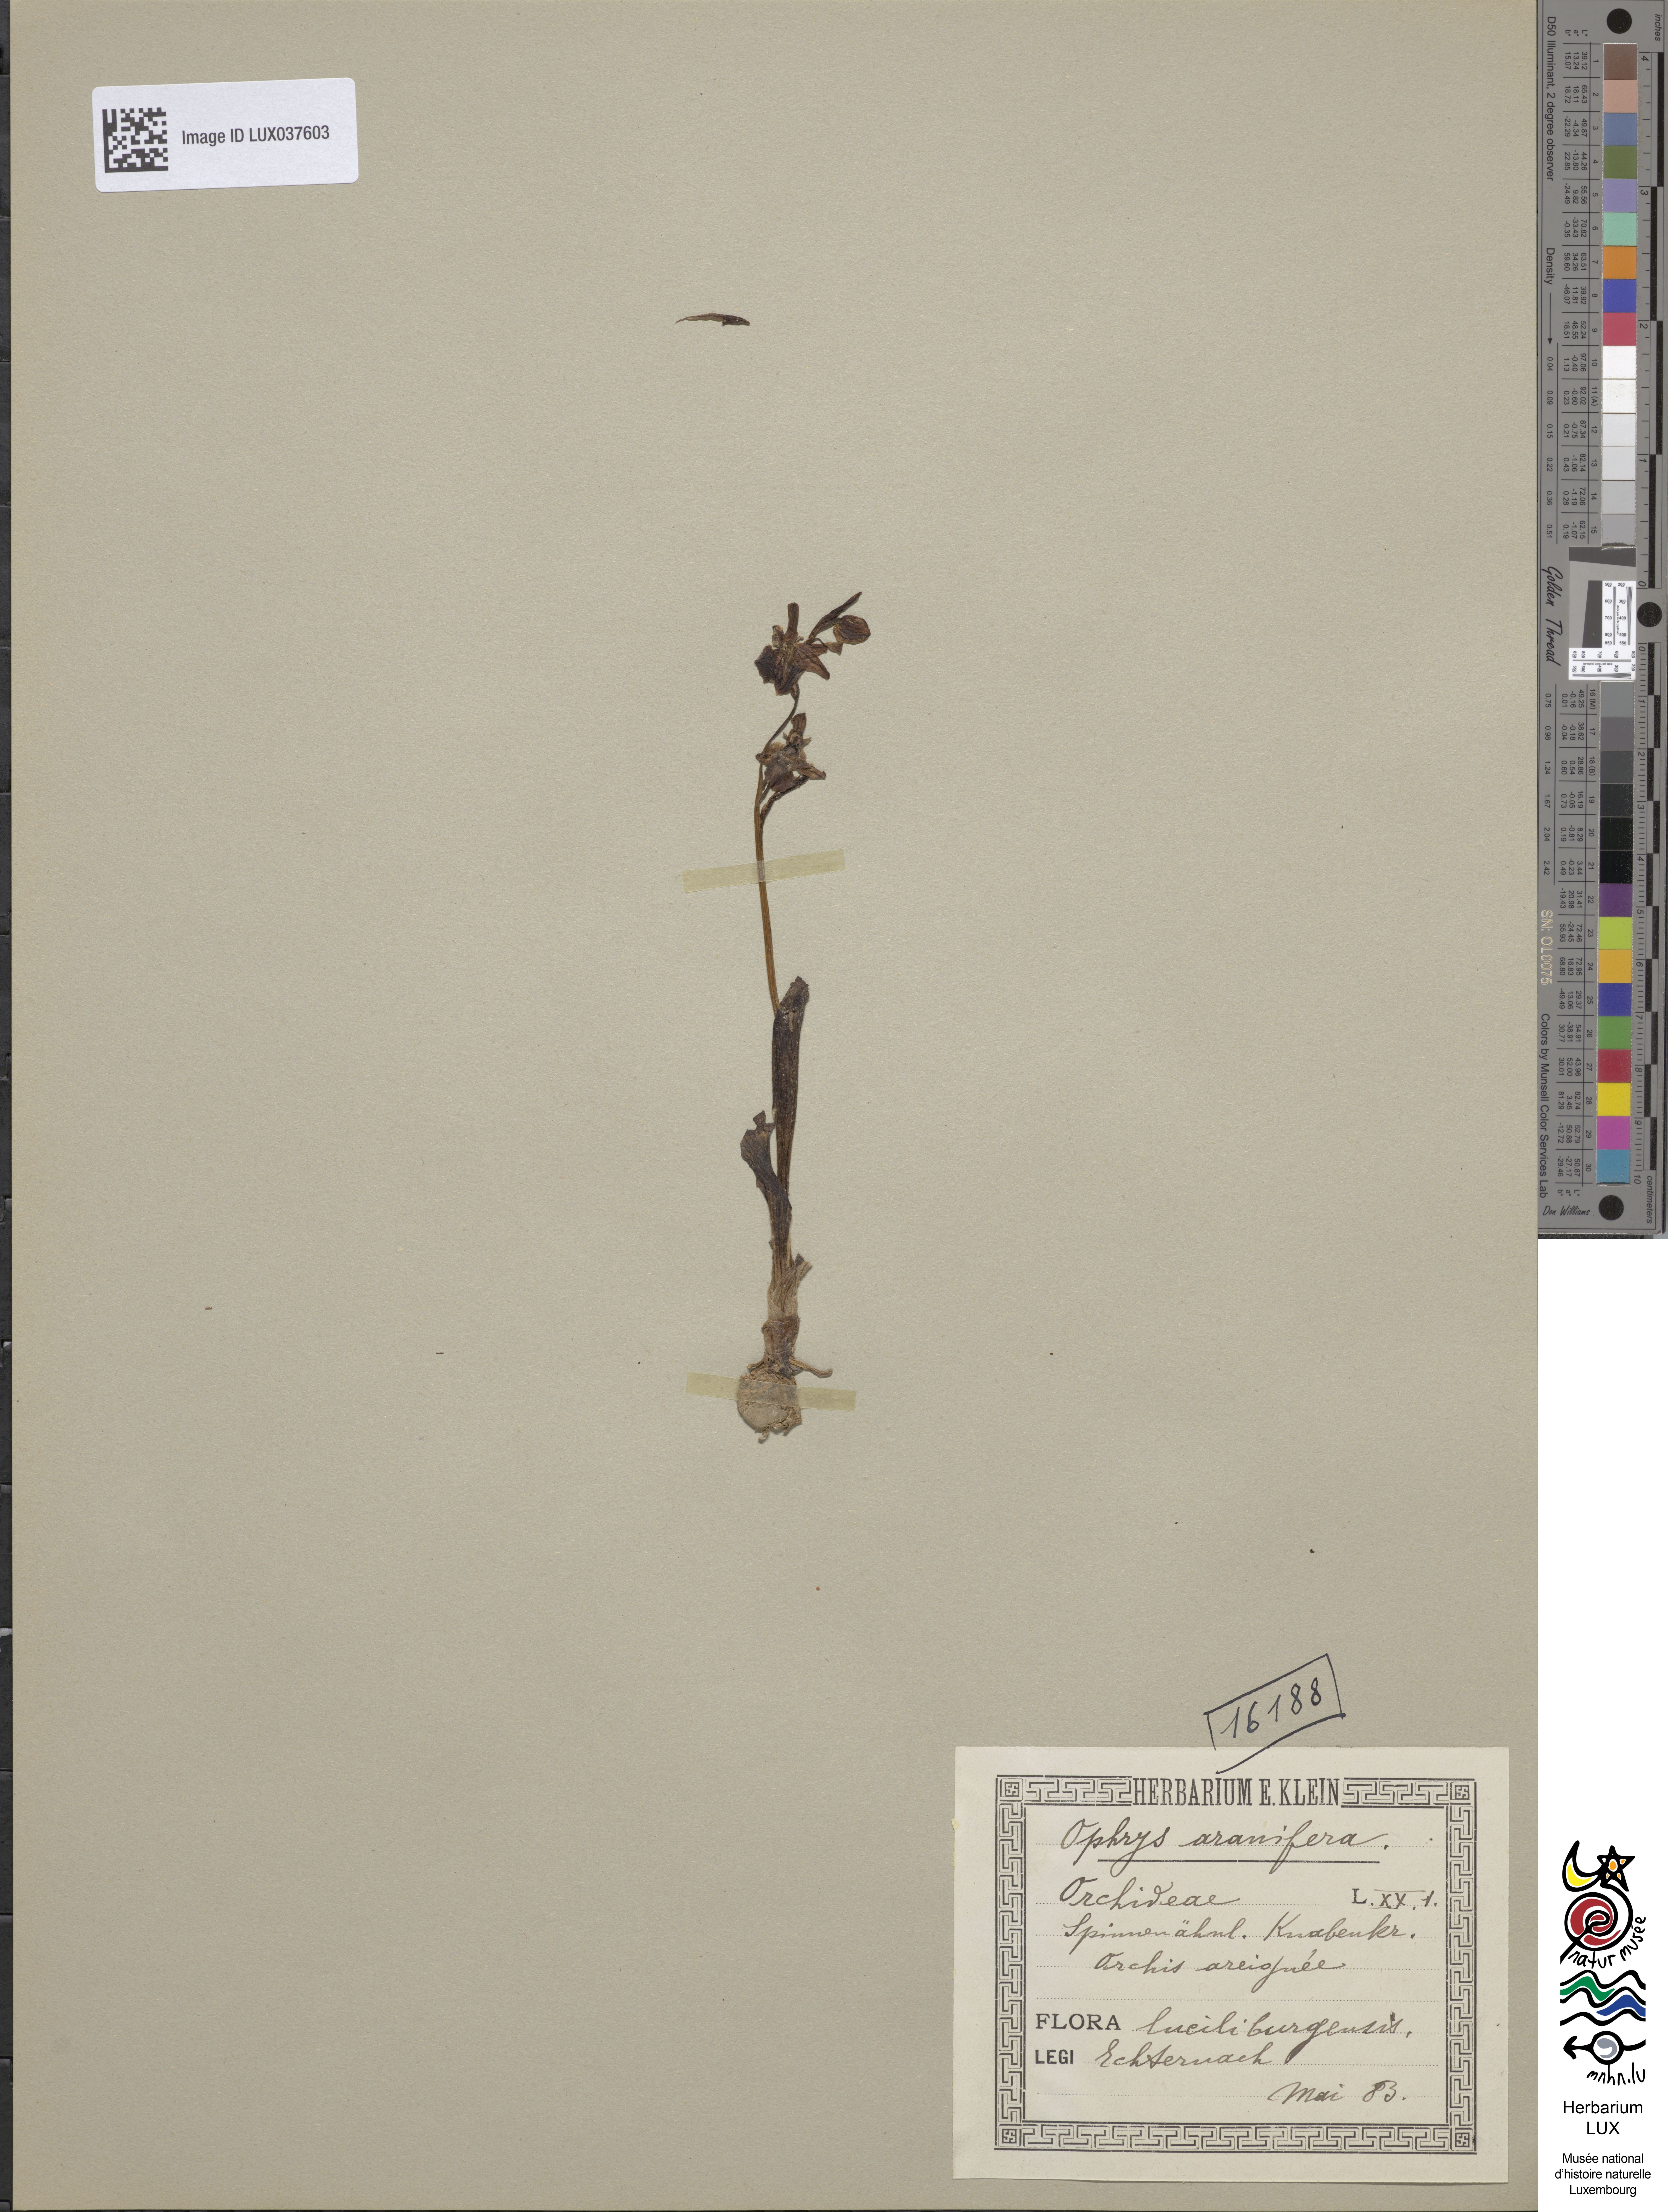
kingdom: Plantae
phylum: Tracheophyta
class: Liliopsida
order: Asparagales
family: Orchidaceae
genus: Ophrys
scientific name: Ophrys sphegodes
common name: Early spider-orchid
